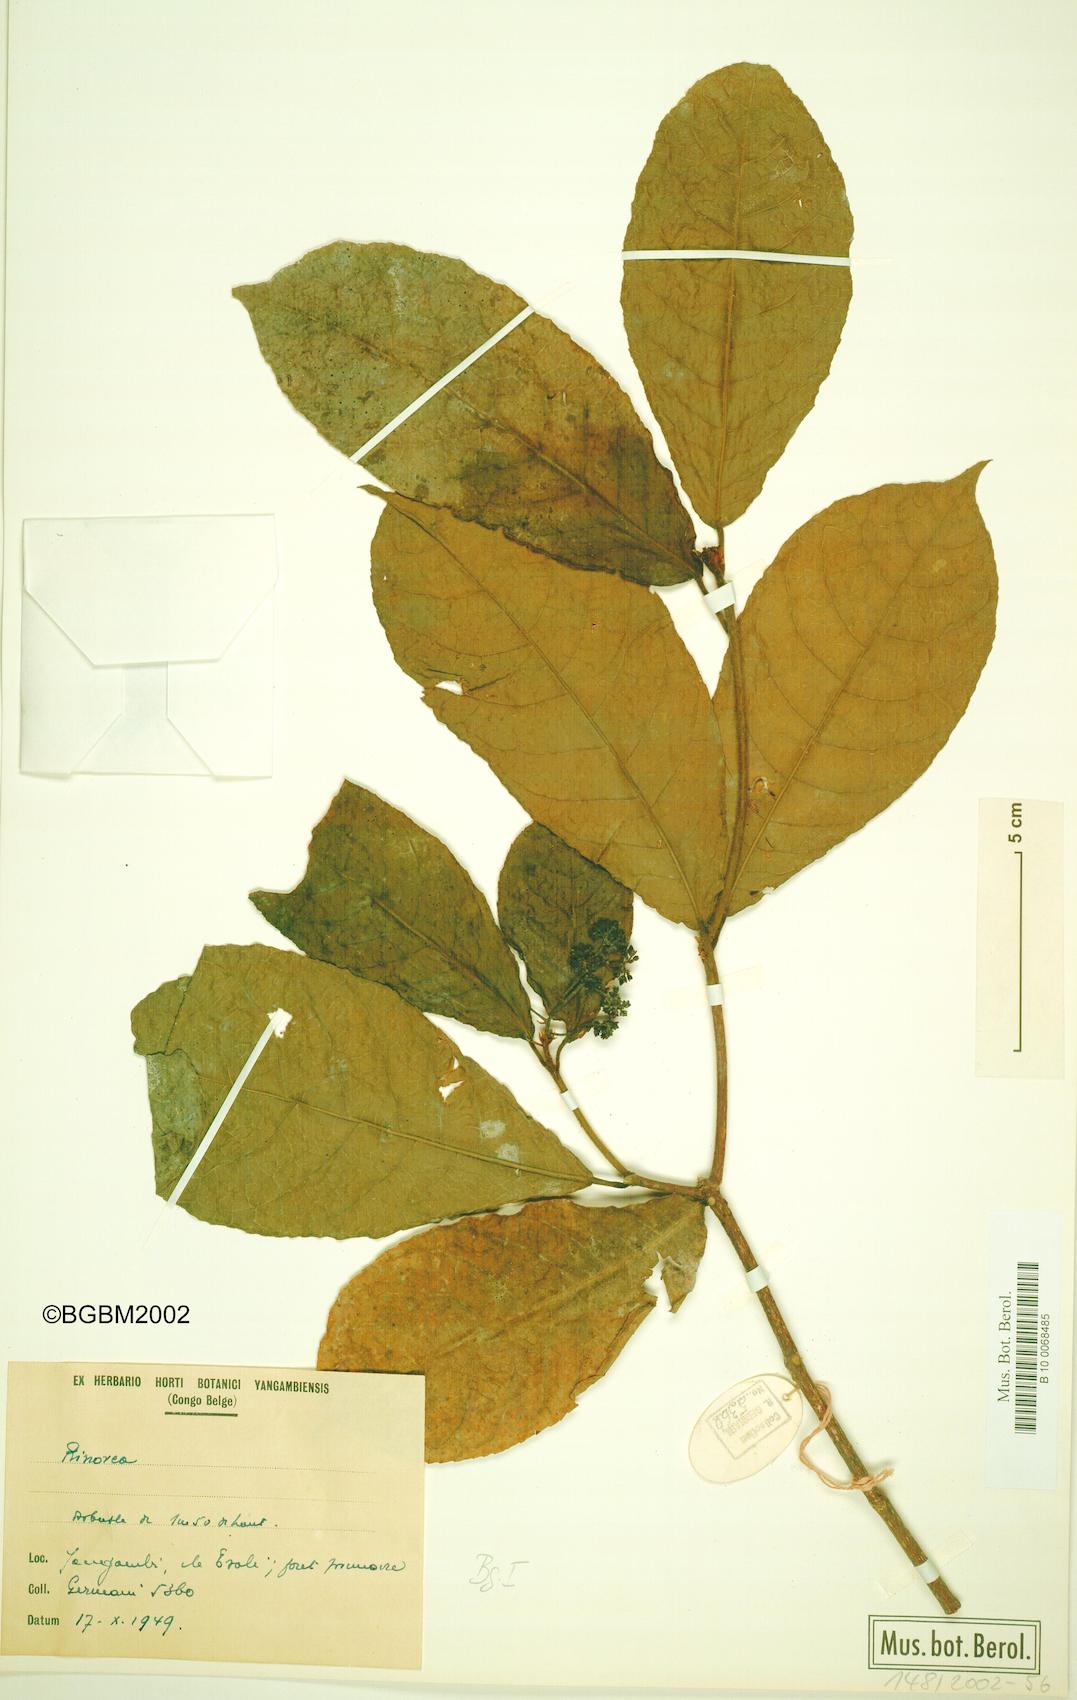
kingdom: Plantae
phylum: Tracheophyta
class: Magnoliopsida
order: Malpighiales
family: Violaceae
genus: Rinorea
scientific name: Rinorea
